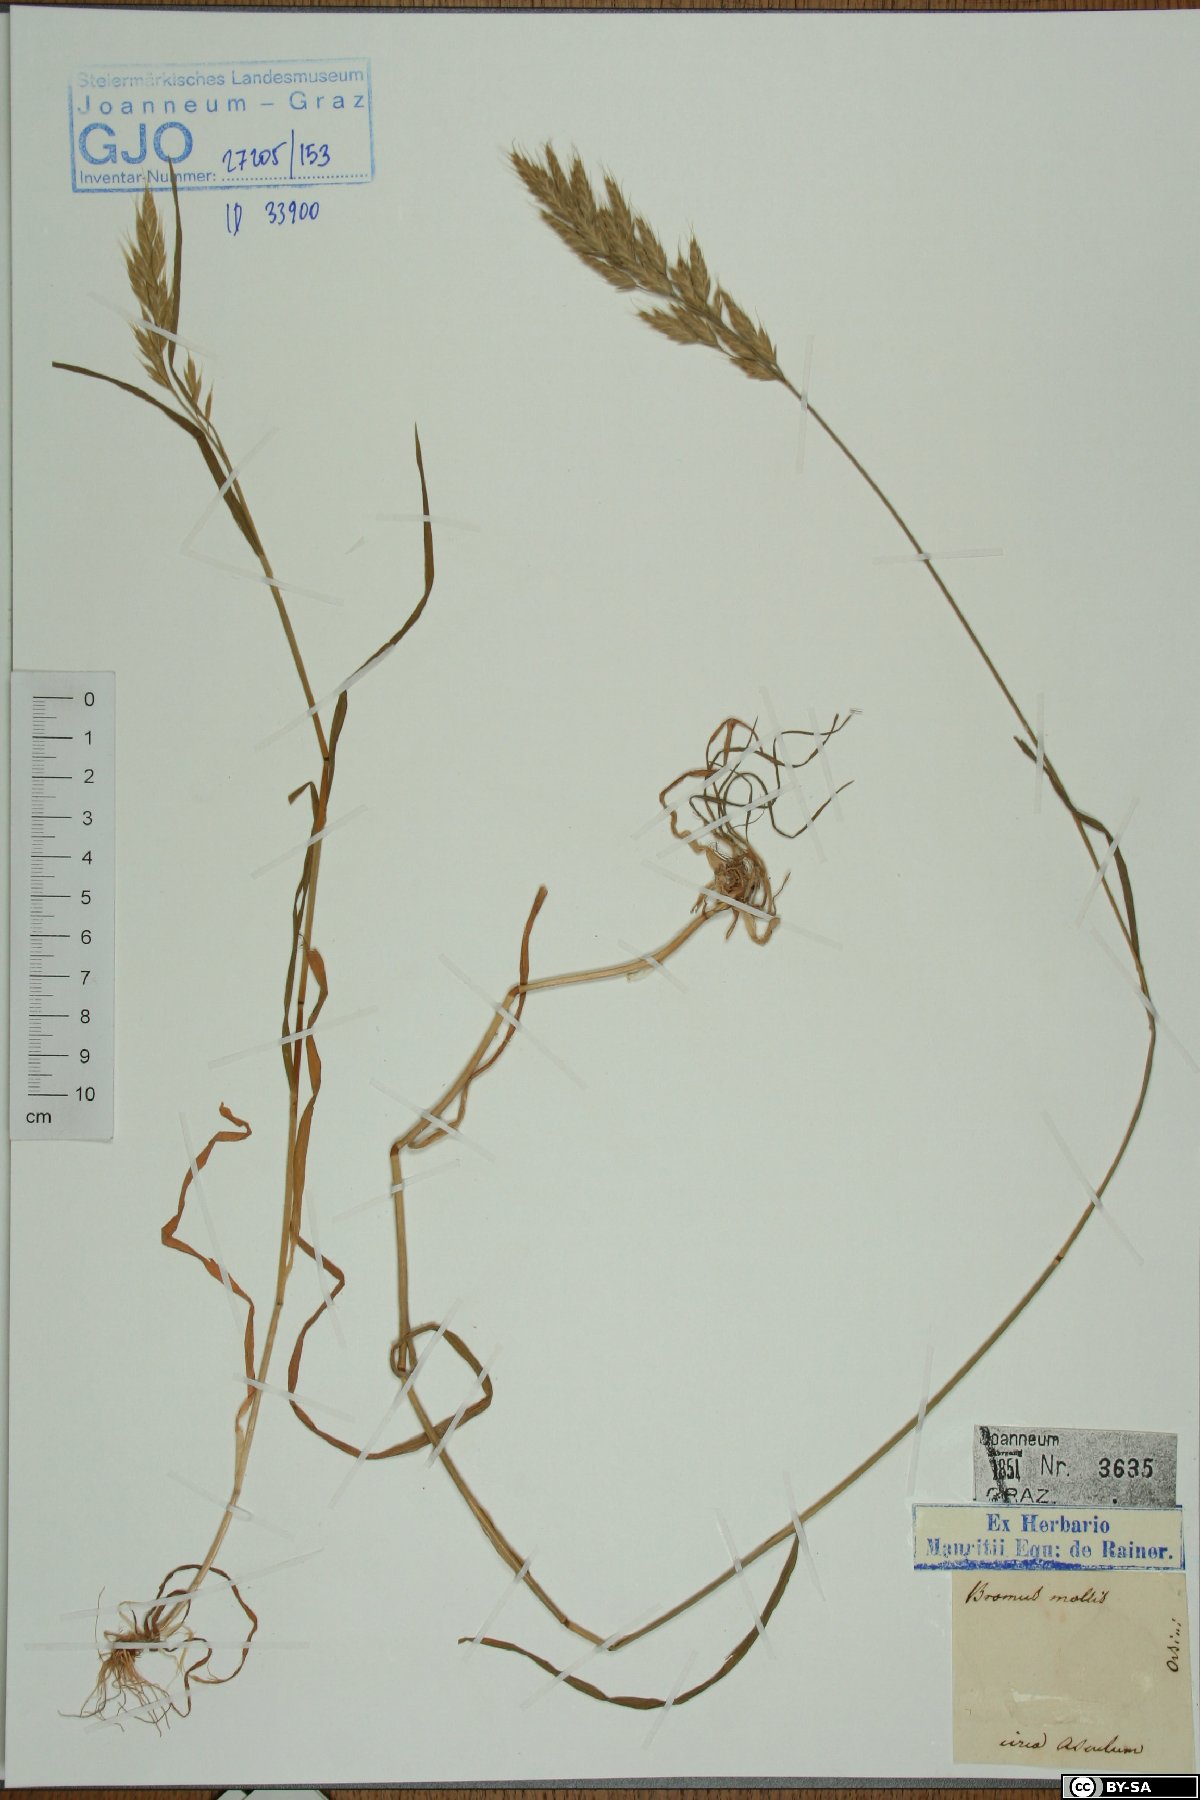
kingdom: Plantae
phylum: Tracheophyta
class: Liliopsida
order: Poales
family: Poaceae
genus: Bromus
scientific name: Bromus hordeaceus
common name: Soft brome
